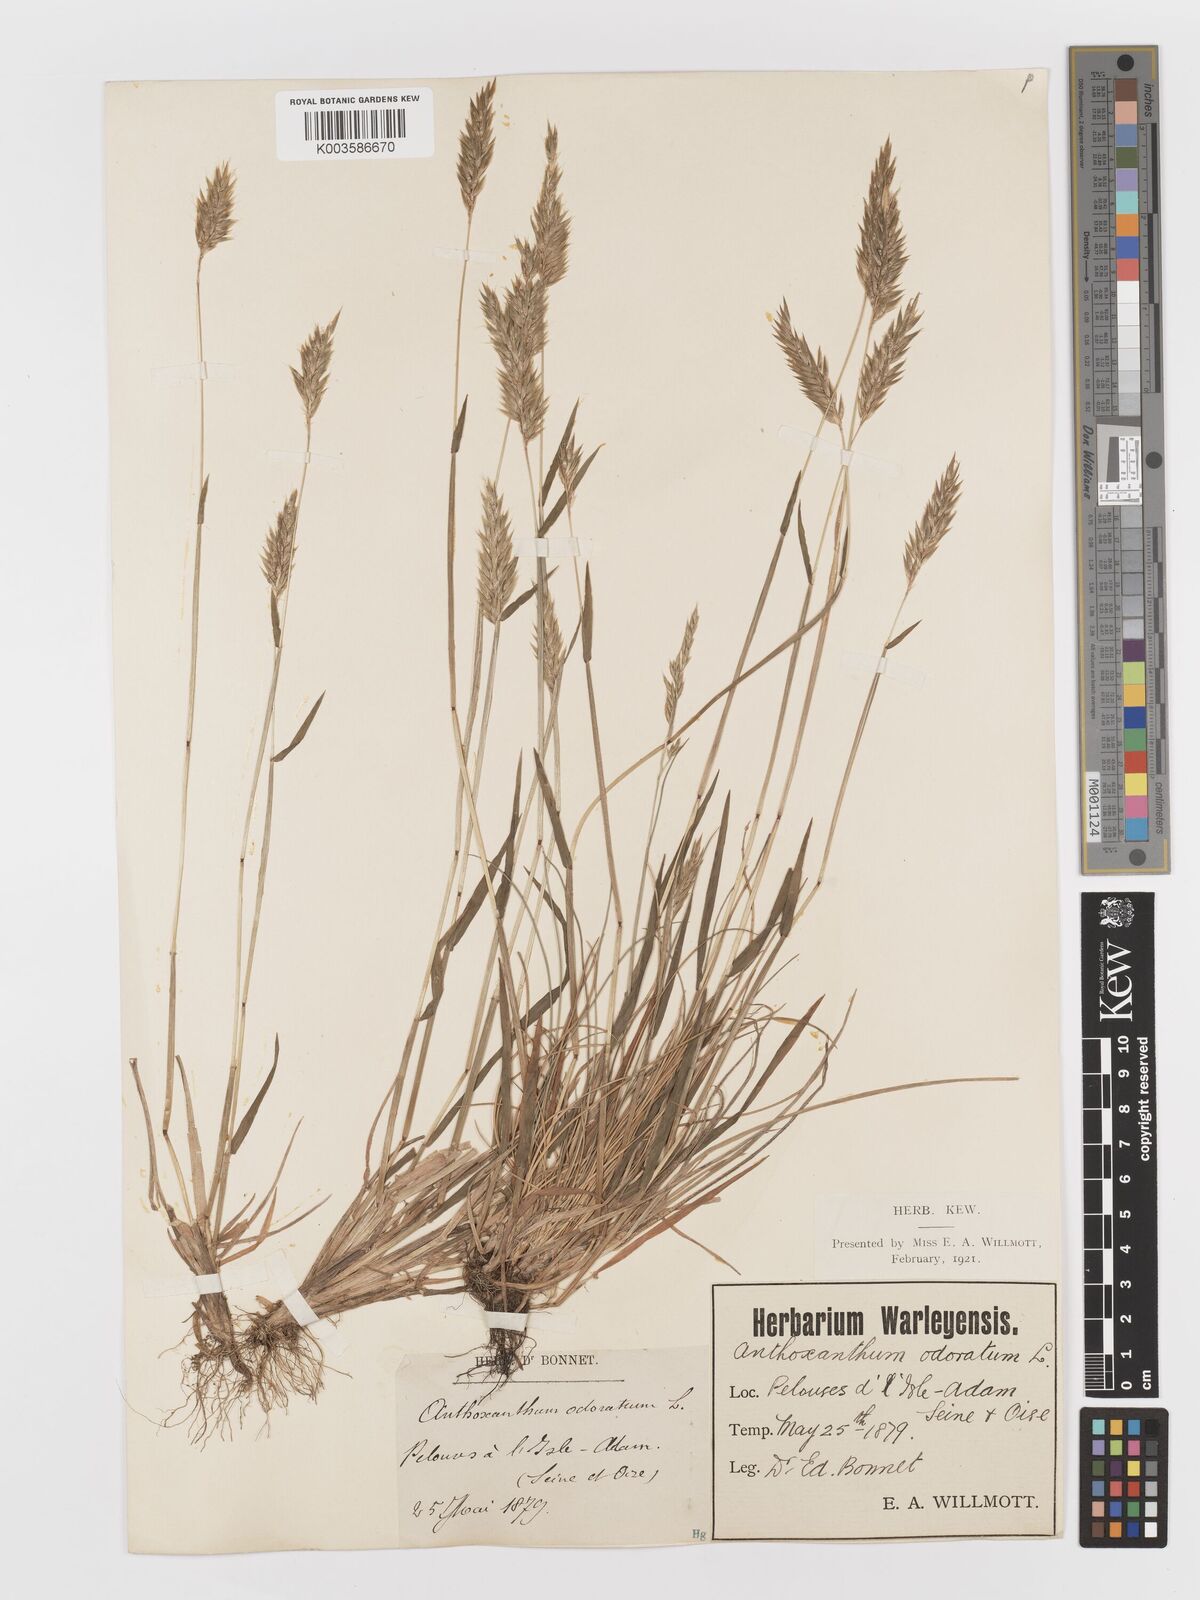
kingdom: Plantae
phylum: Tracheophyta
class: Liliopsida
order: Poales
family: Poaceae
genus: Anthoxanthum
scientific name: Anthoxanthum odoratum
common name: Sweet vernalgrass
